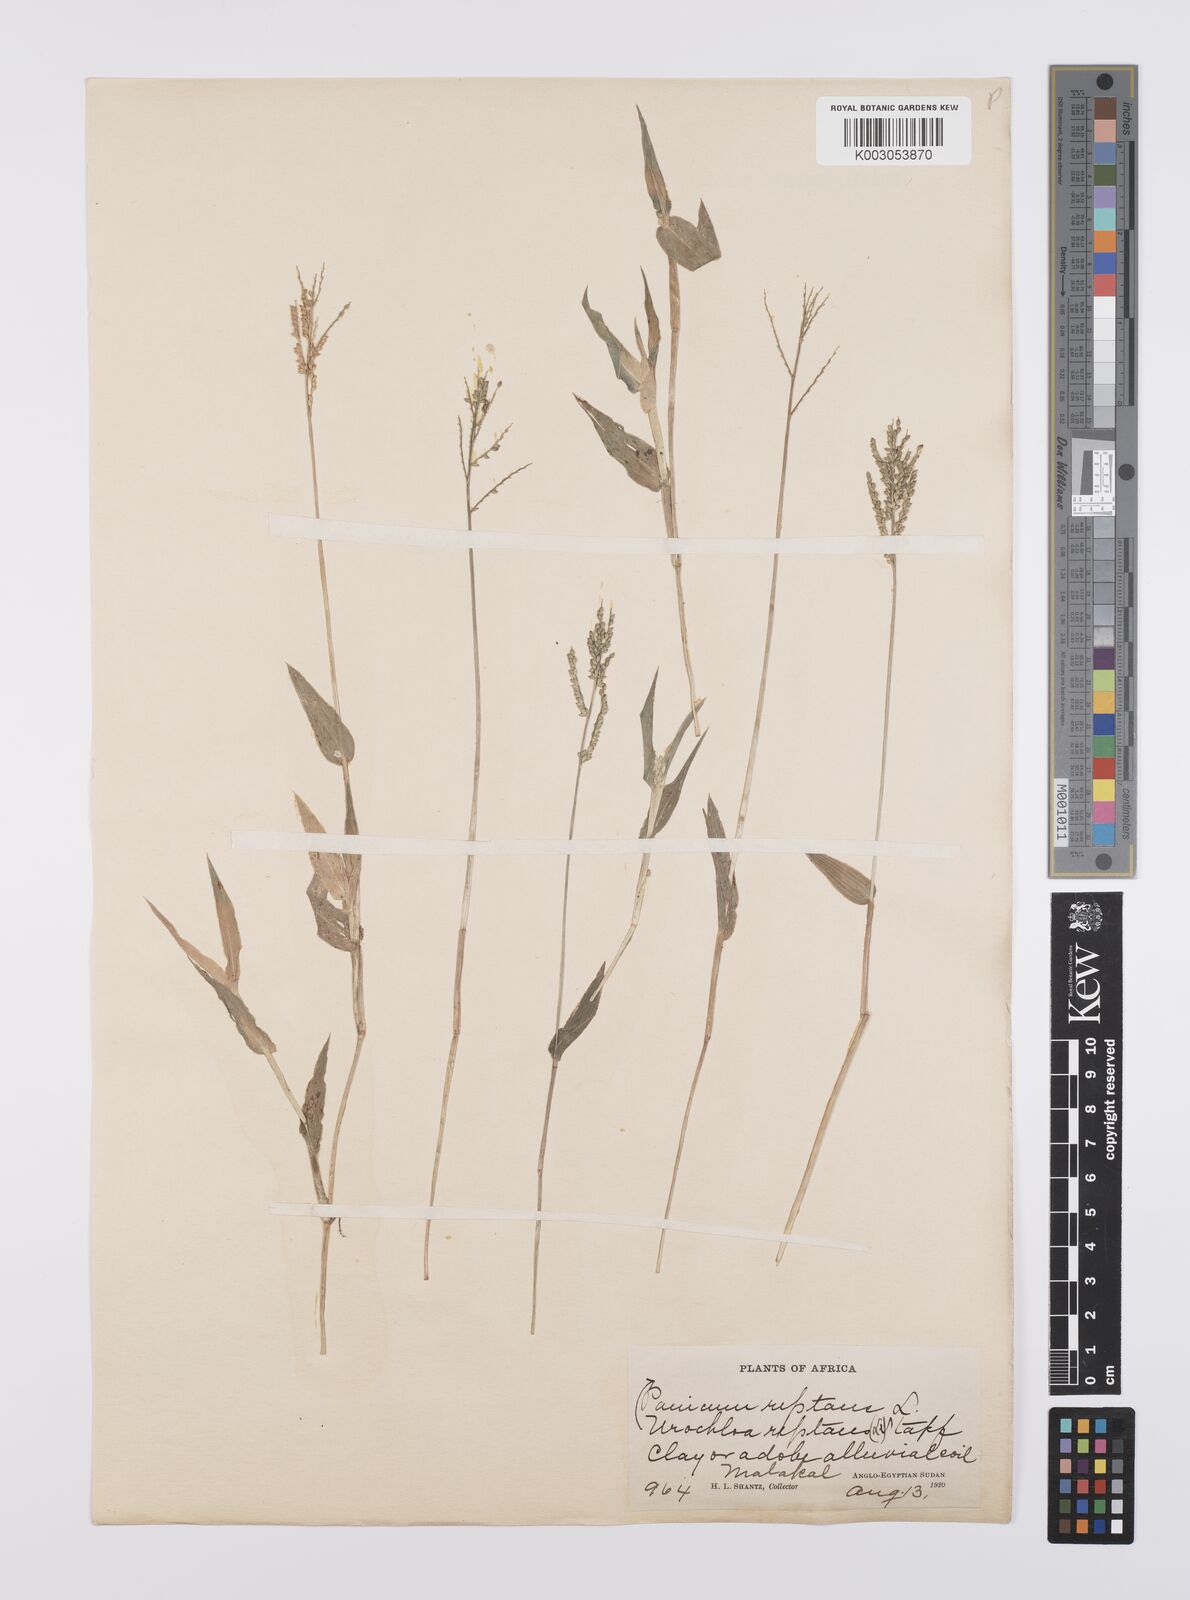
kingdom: Plantae
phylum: Tracheophyta
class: Liliopsida
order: Poales
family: Poaceae
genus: Urochloa
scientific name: Urochloa reptans
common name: Sprawling signalgrass
